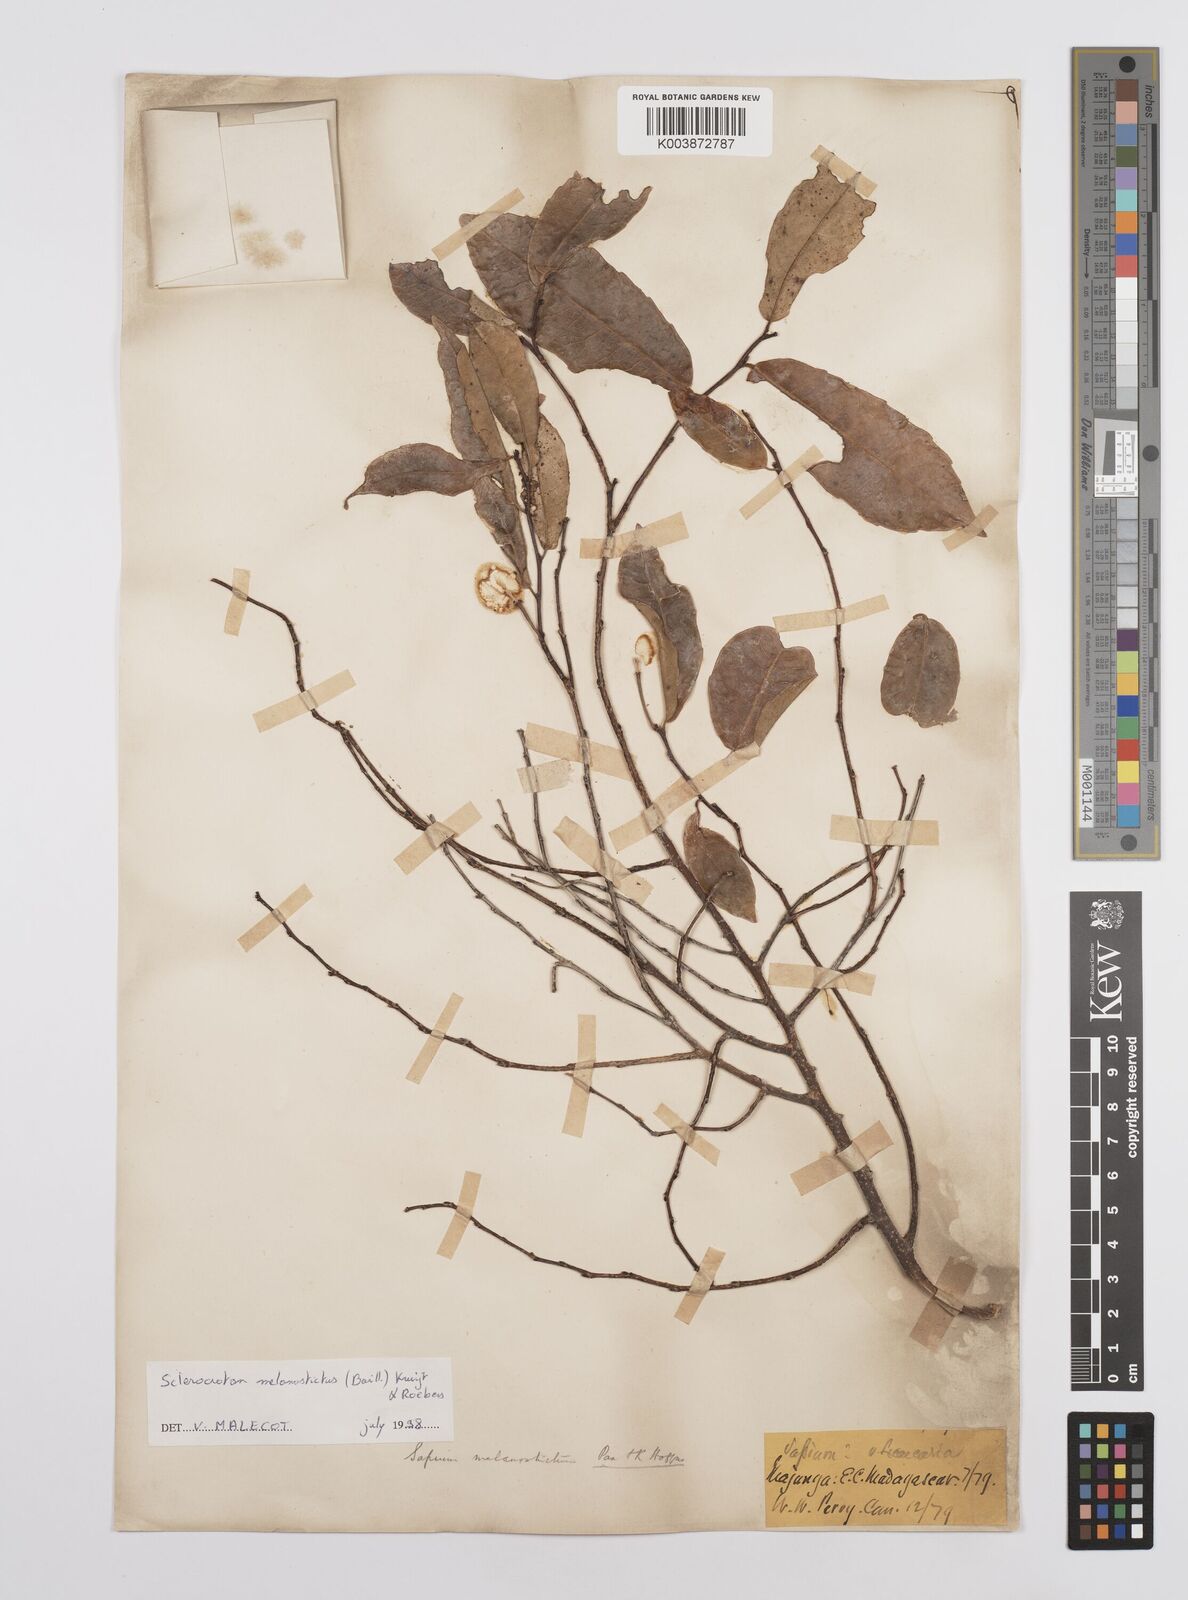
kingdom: Plantae
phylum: Tracheophyta
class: Magnoliopsida
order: Malpighiales
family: Euphorbiaceae
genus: Sclerocroton
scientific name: Sclerocroton melanostictus
